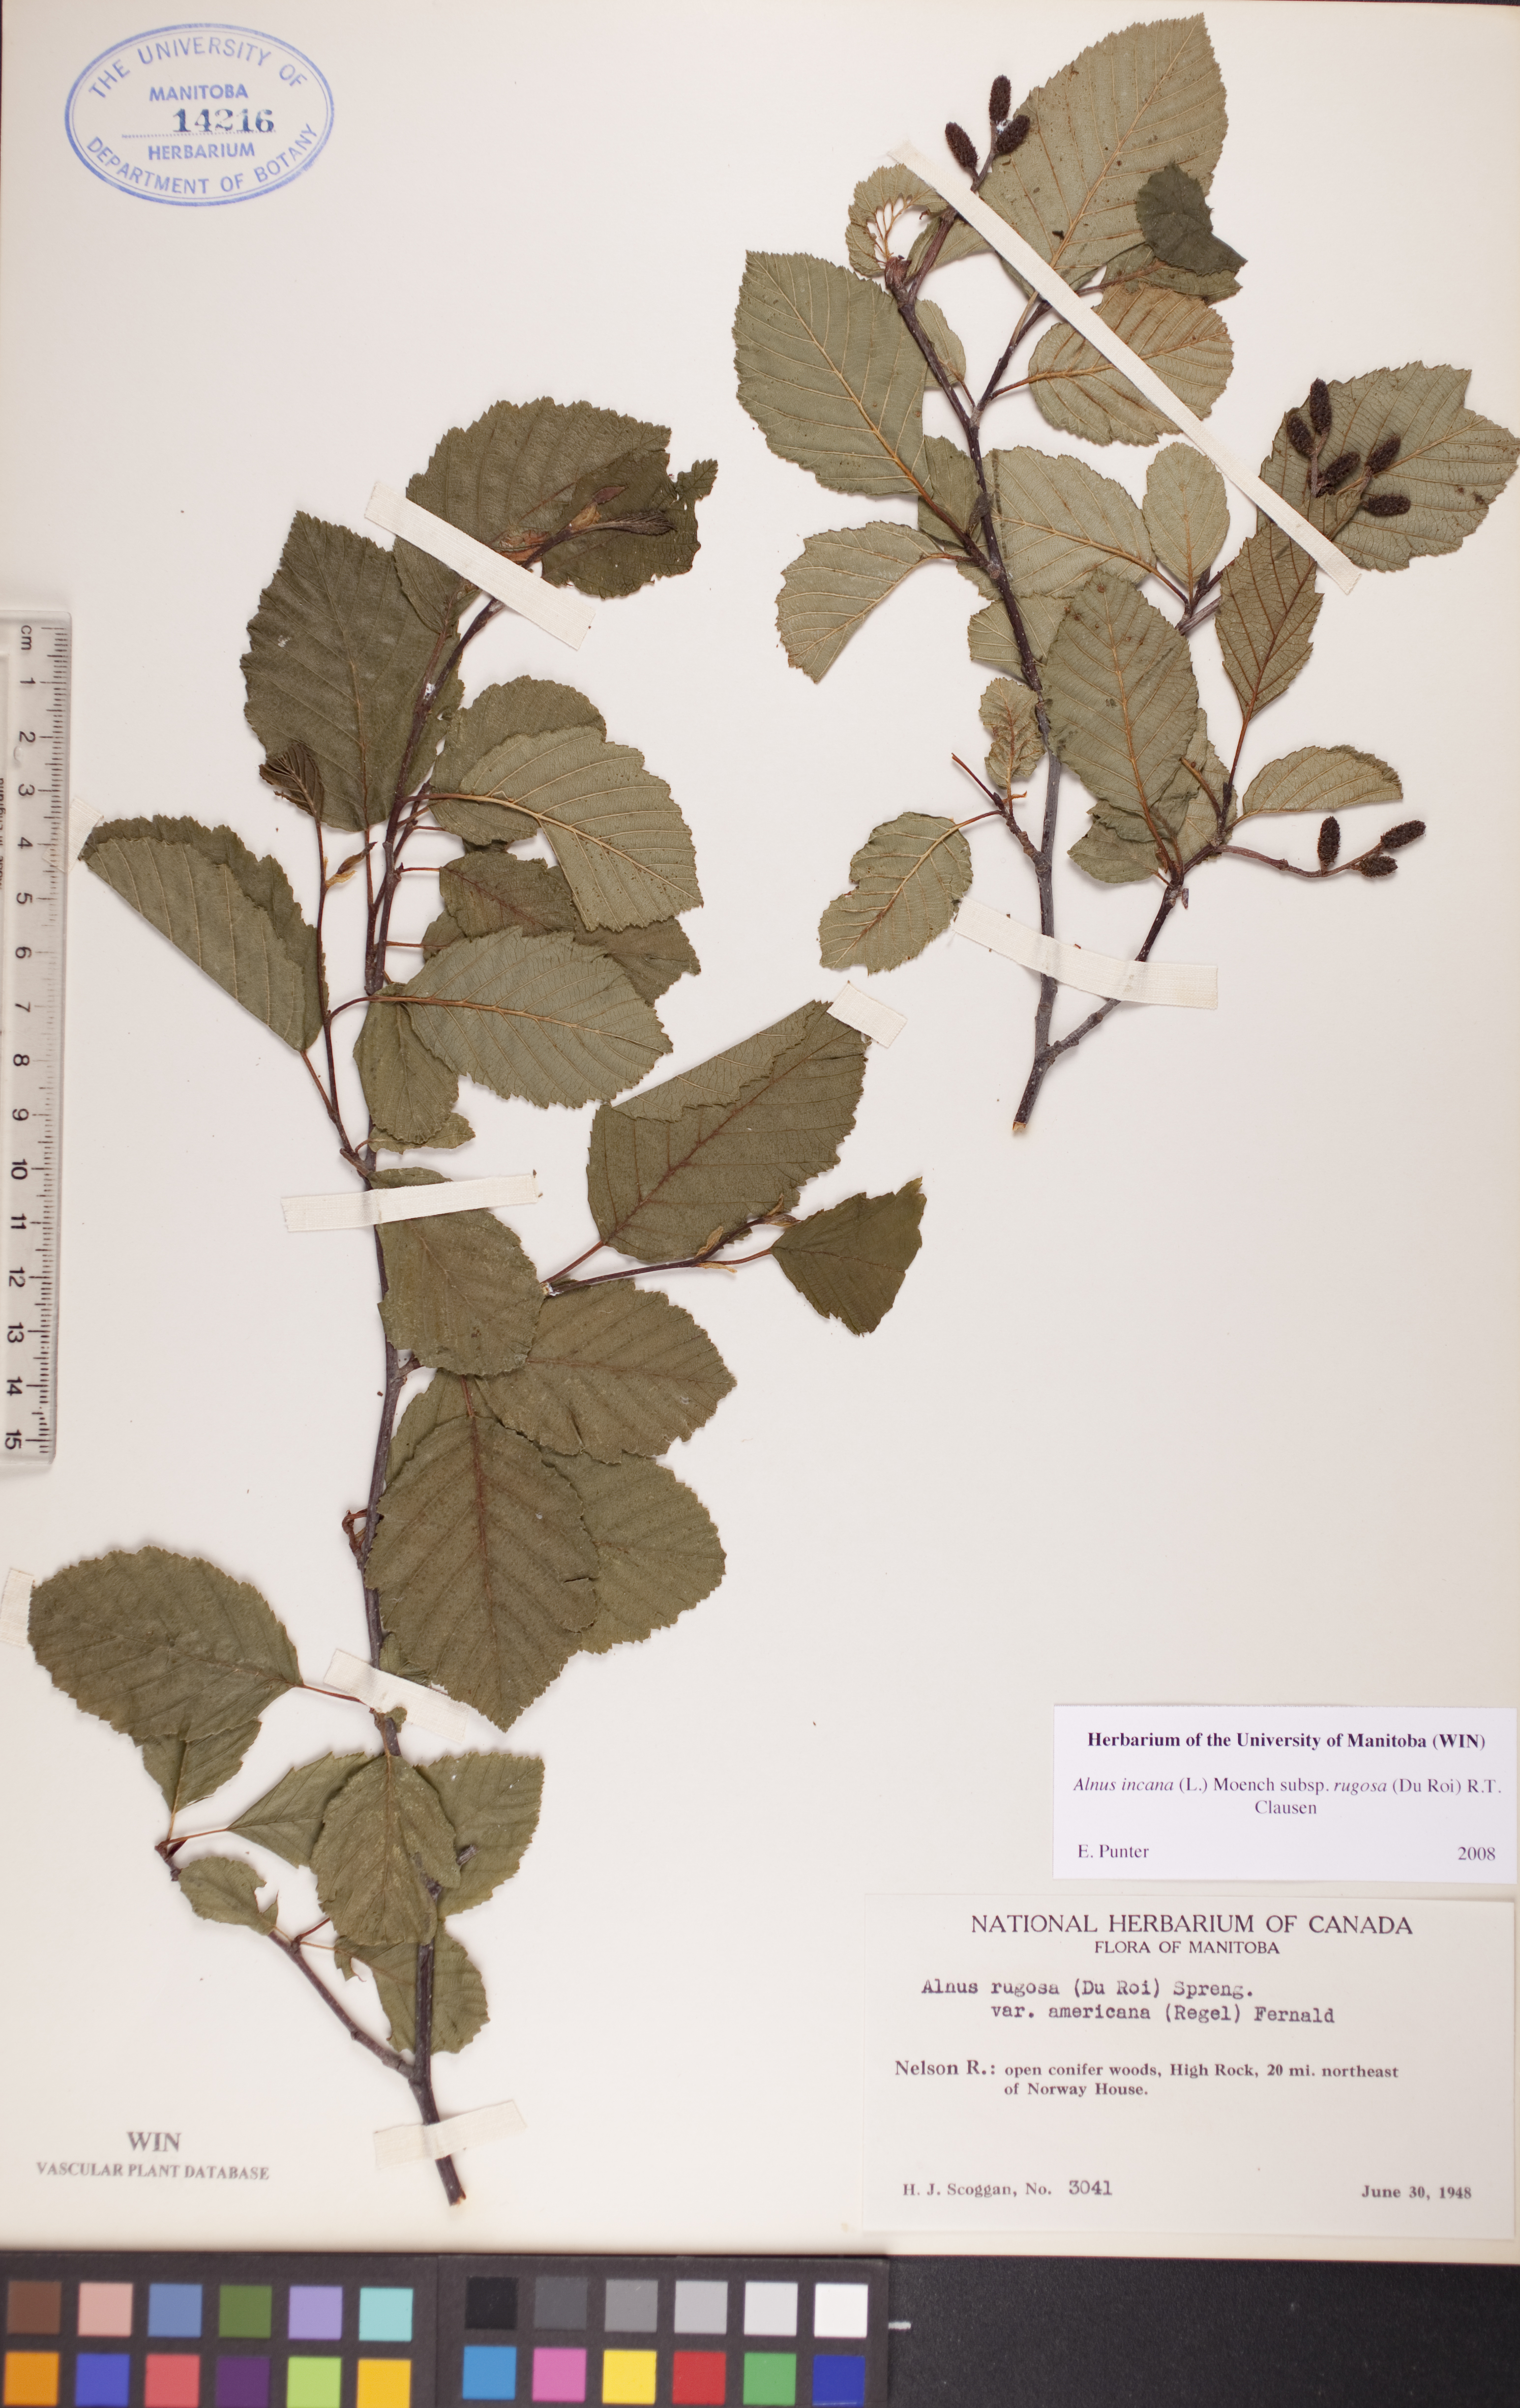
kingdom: Plantae
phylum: Tracheophyta
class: Magnoliopsida
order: Fagales
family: Betulaceae
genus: Alnus
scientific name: Alnus incana
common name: Grey alder
